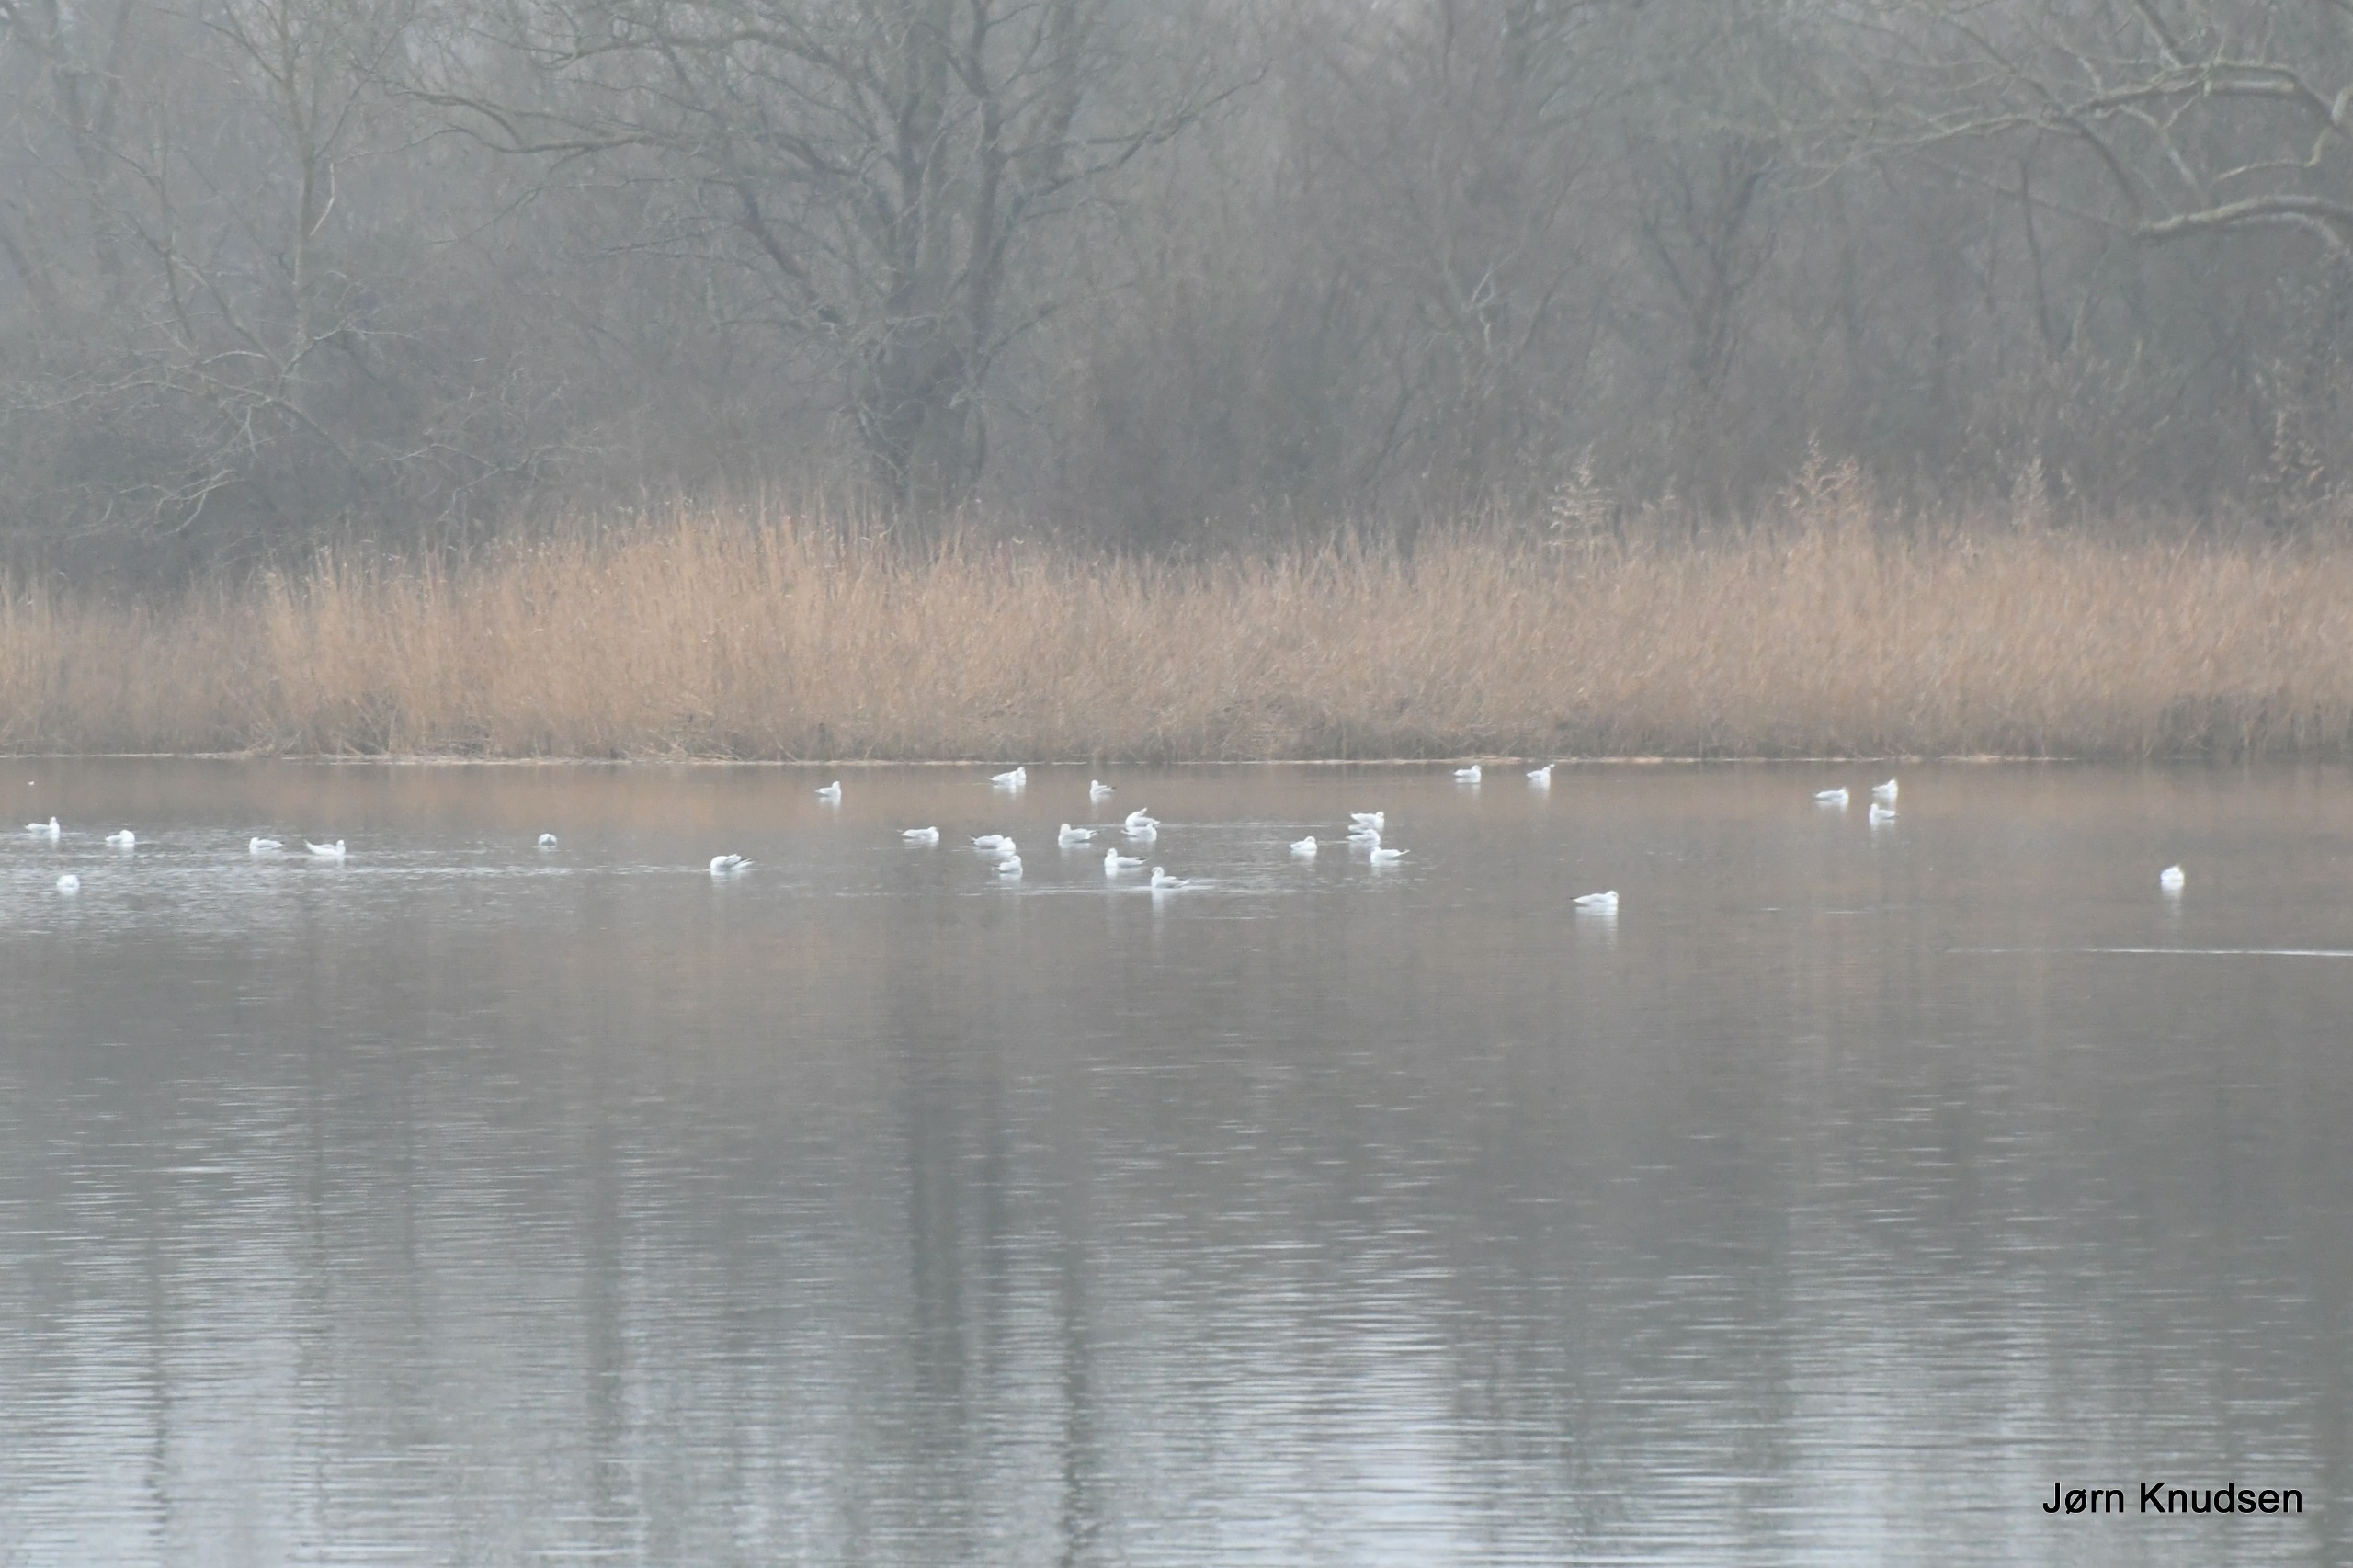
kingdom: Animalia
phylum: Chordata
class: Aves
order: Charadriiformes
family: Laridae
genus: Chroicocephalus
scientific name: Chroicocephalus ridibundus
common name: Hættemåge
